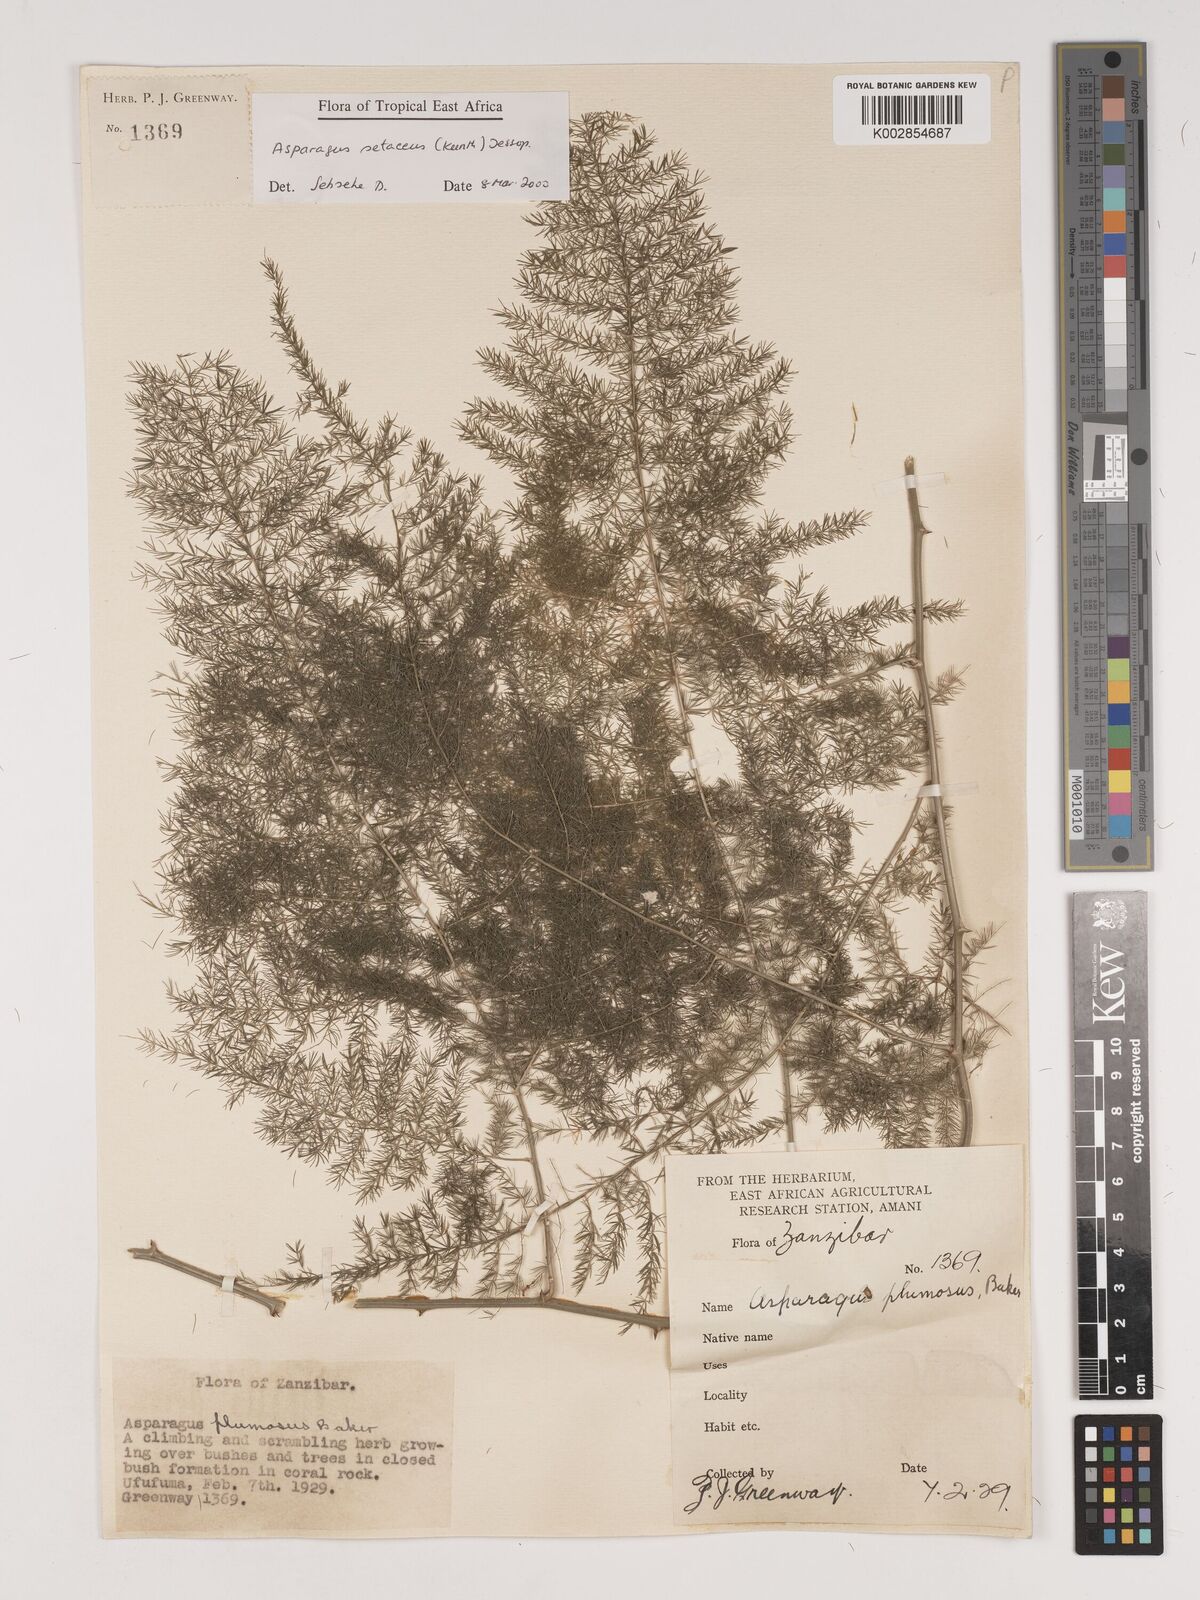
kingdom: Plantae
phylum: Tracheophyta
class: Liliopsida
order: Asparagales
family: Asparagaceae
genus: Asparagus
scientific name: Asparagus setaceus
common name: Common asparagus fern
